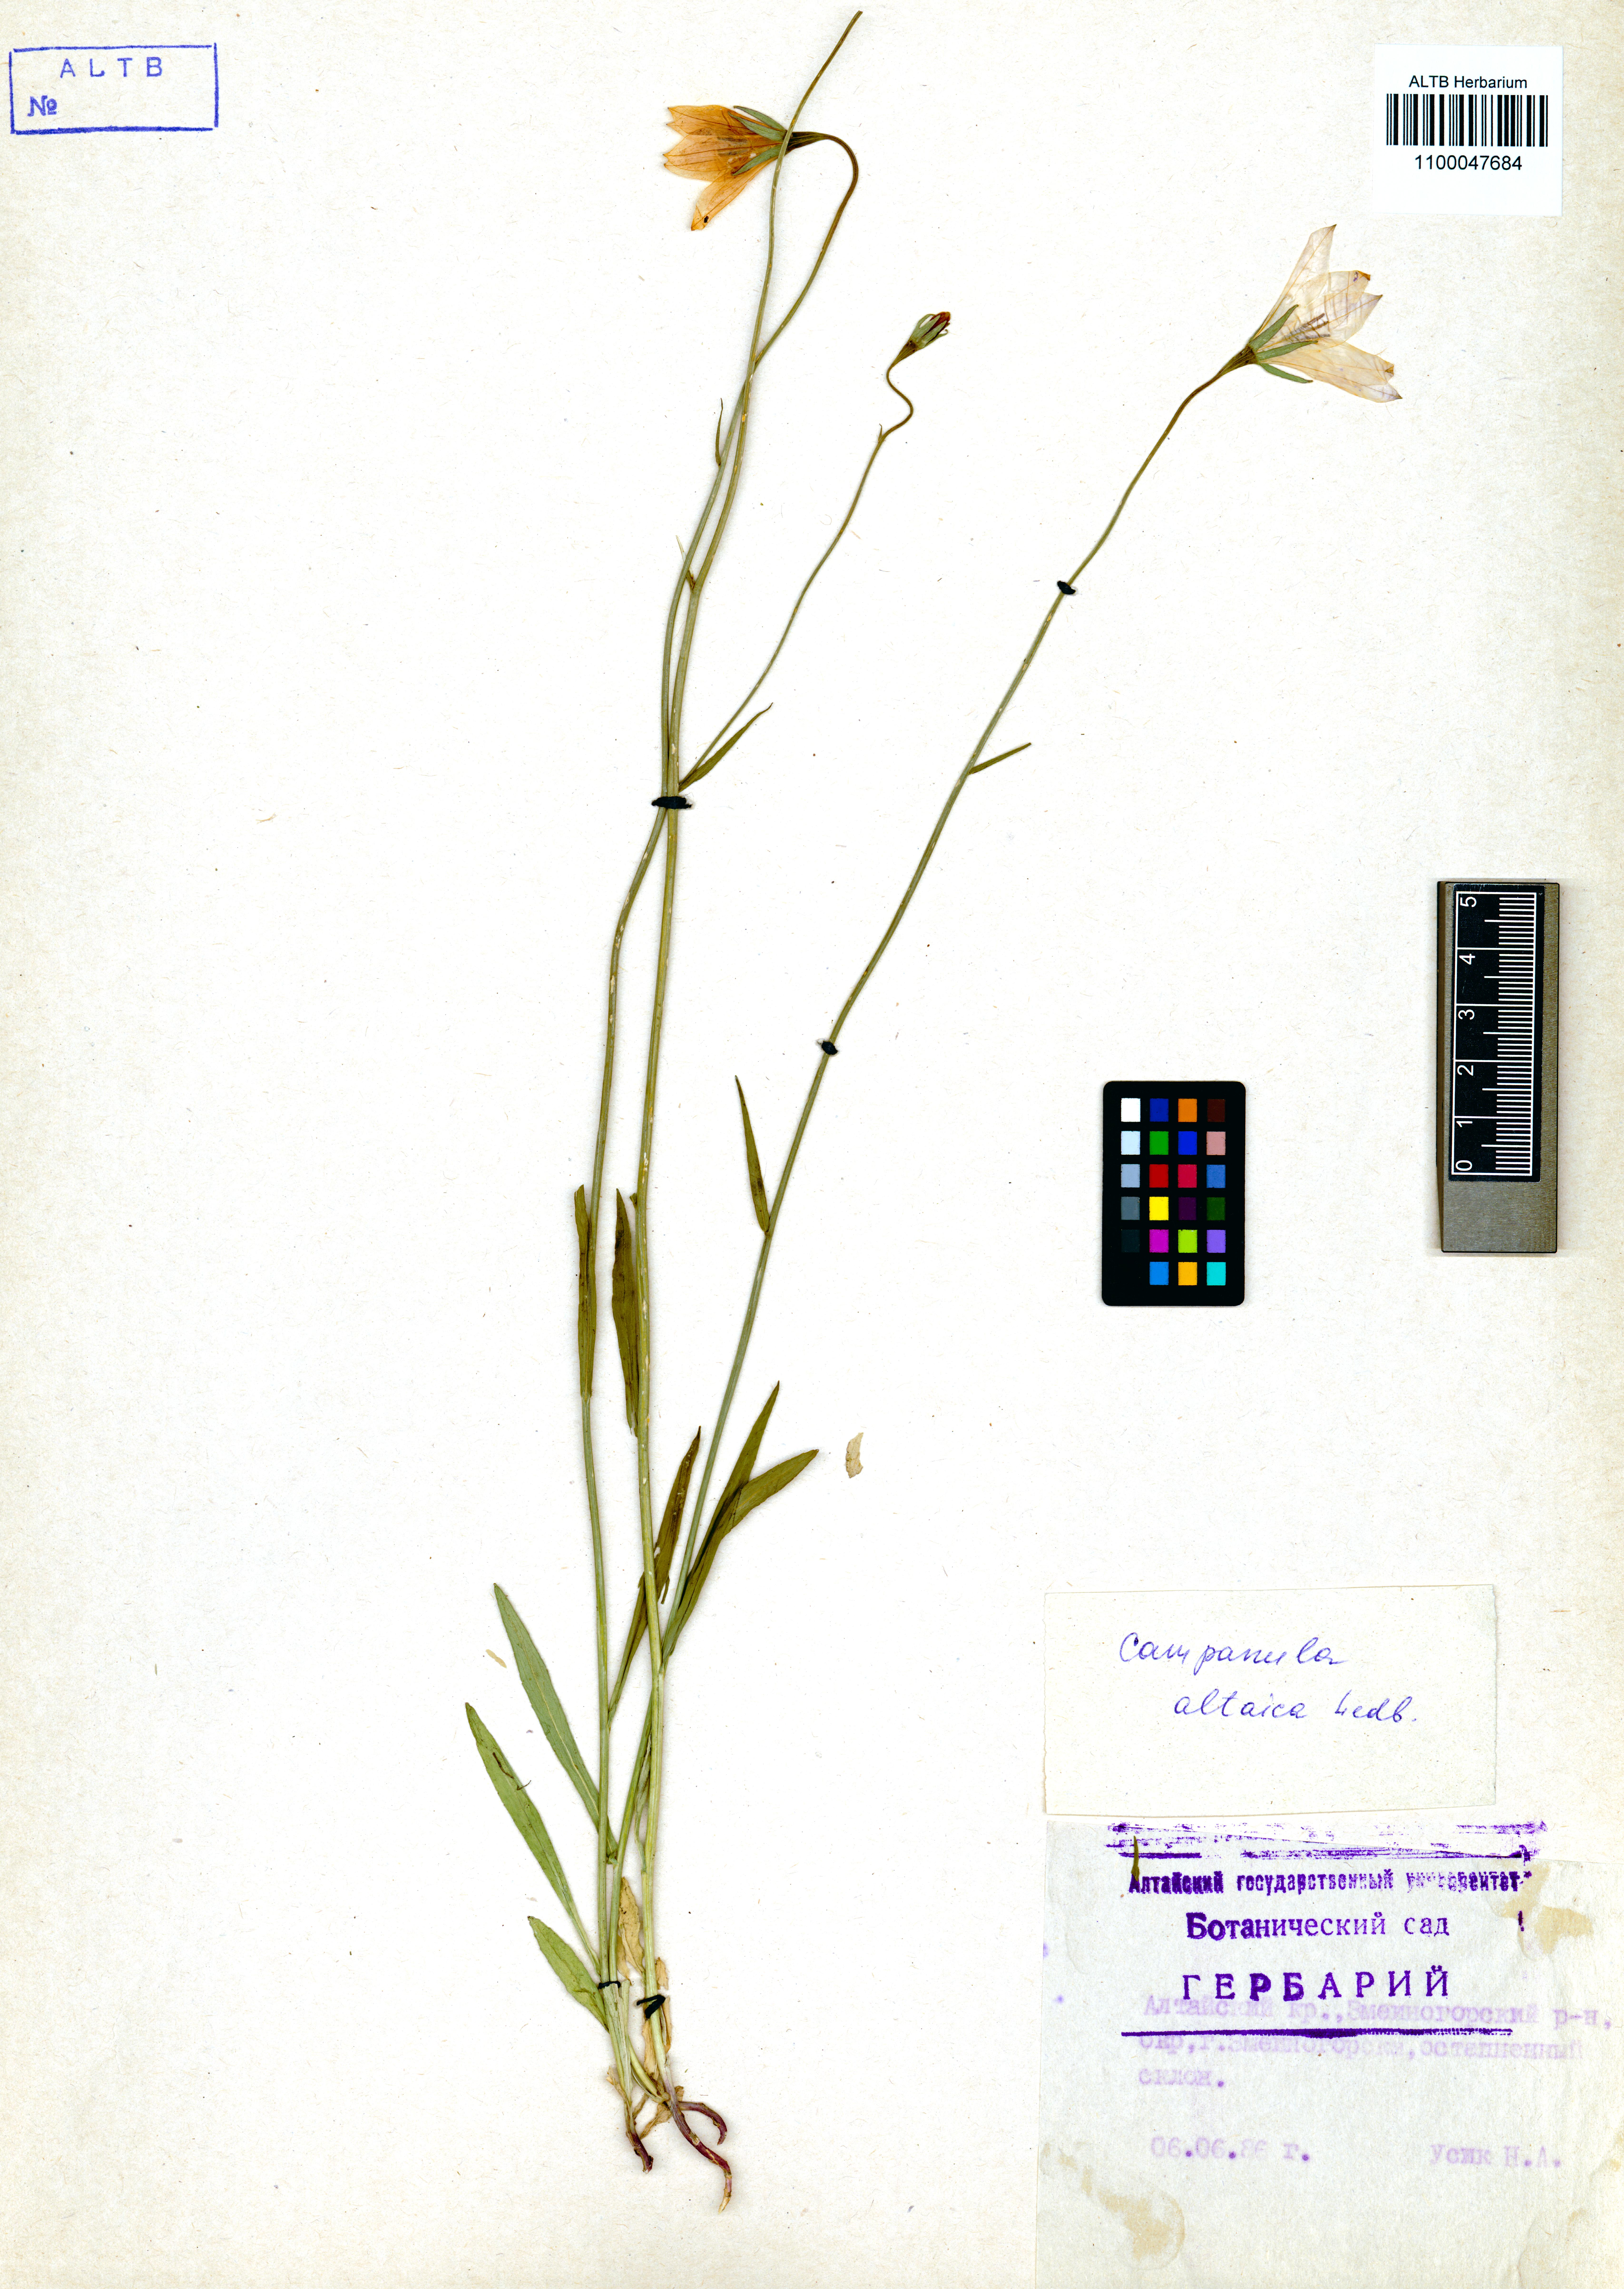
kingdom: Plantae
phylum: Tracheophyta
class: Magnoliopsida
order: Asterales
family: Campanulaceae
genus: Campanula
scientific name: Campanula stevenii
